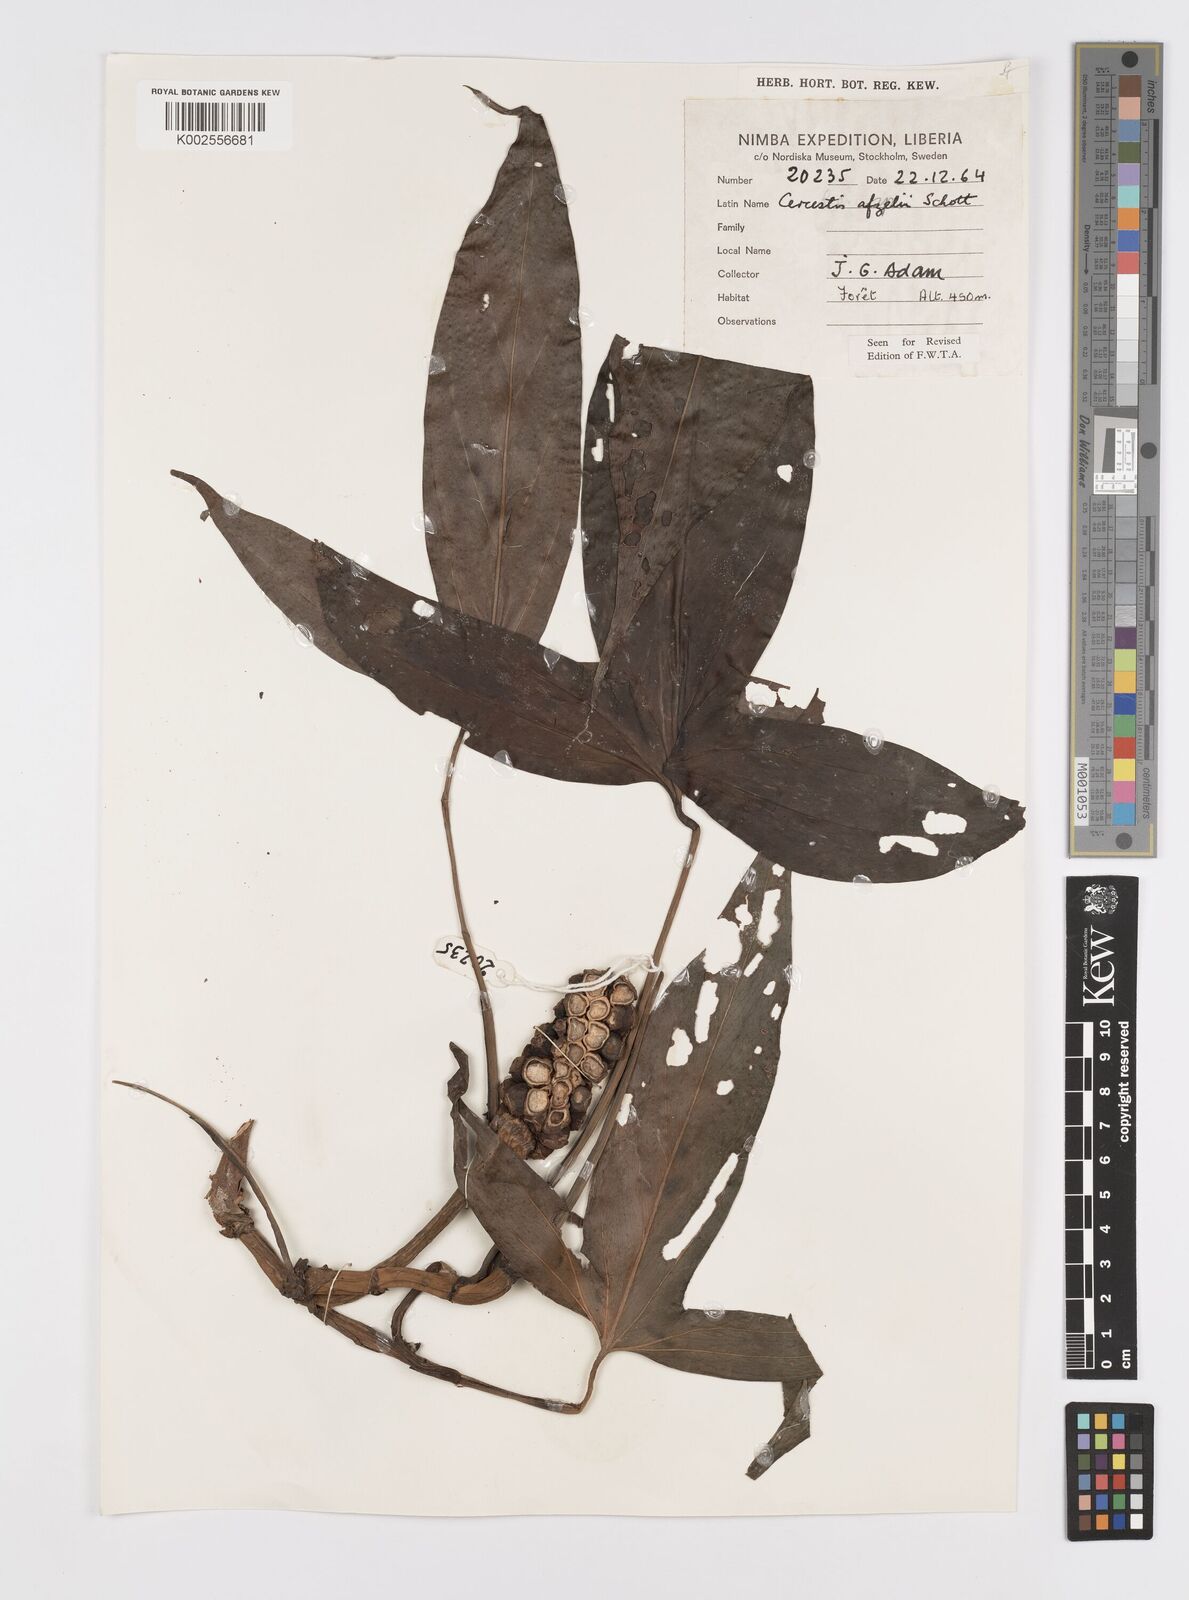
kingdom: Plantae
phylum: Tracheophyta
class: Liliopsida
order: Alismatales
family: Araceae
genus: Cercestis
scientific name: Cercestis afzelii
